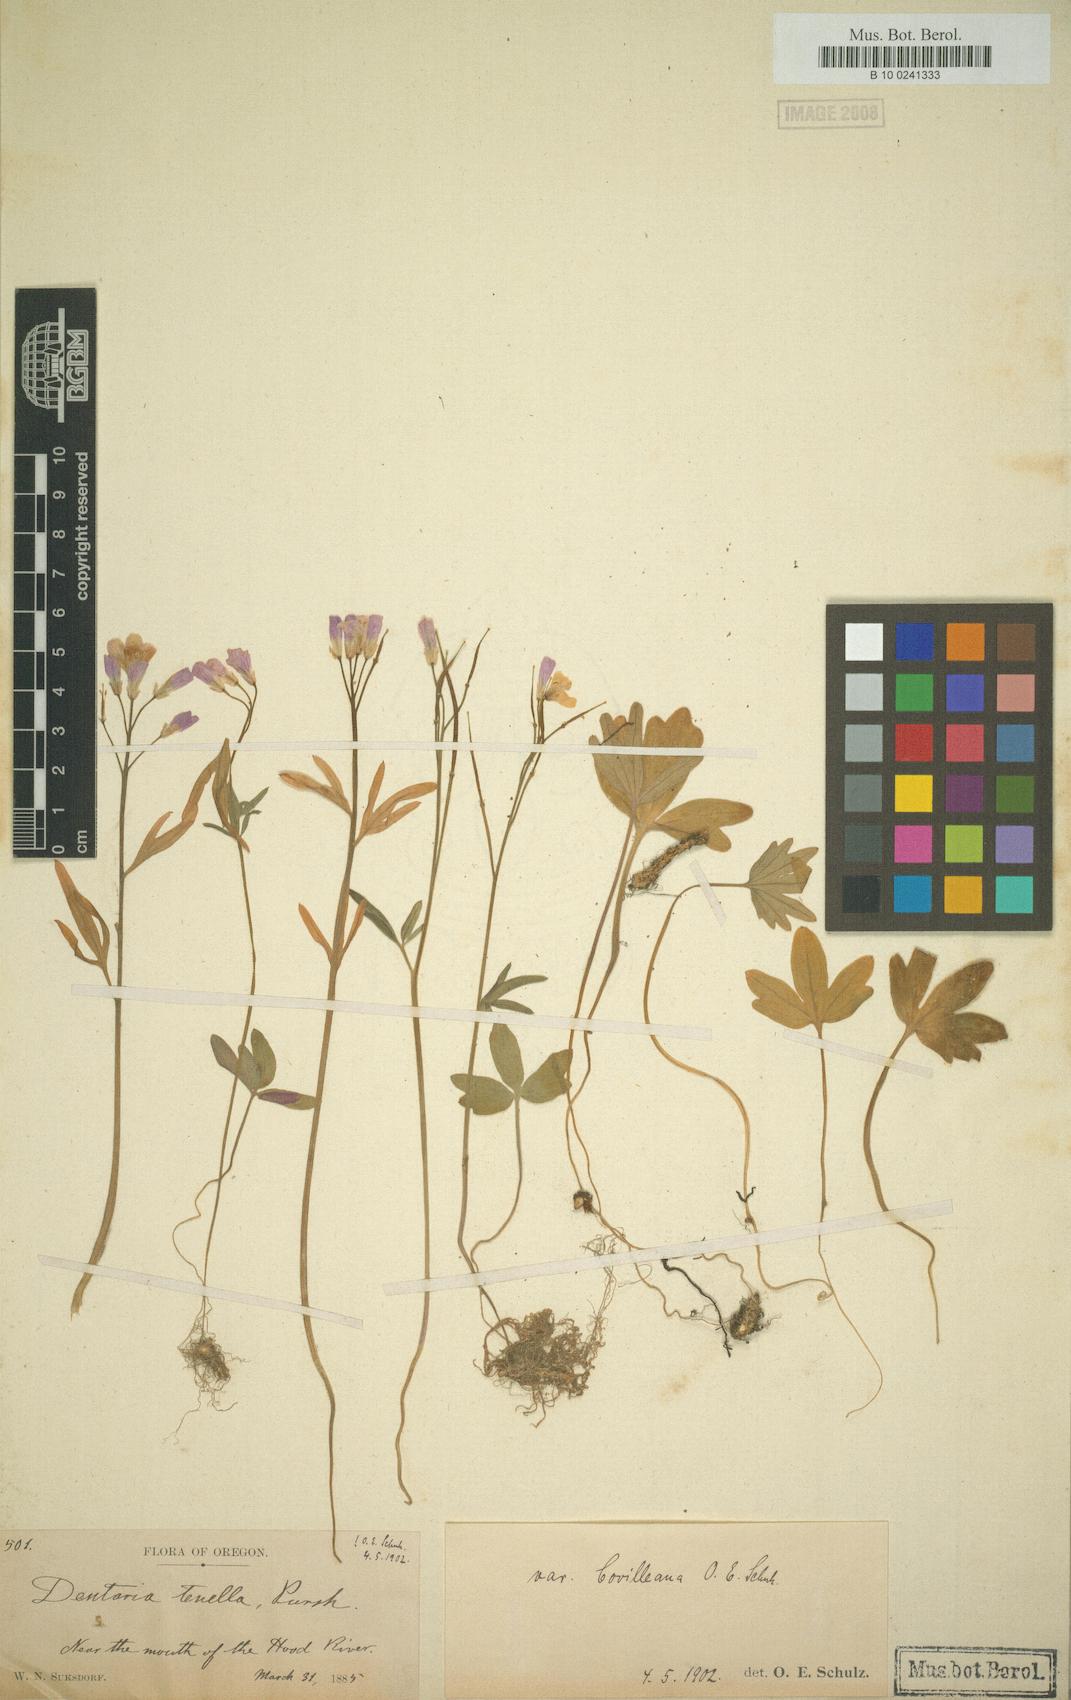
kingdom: Plantae
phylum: Tracheophyta
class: Magnoliopsida
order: Brassicales
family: Brassicaceae
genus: Cardamine
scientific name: Cardamine nuttallii
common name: Nuttall's toothwort
